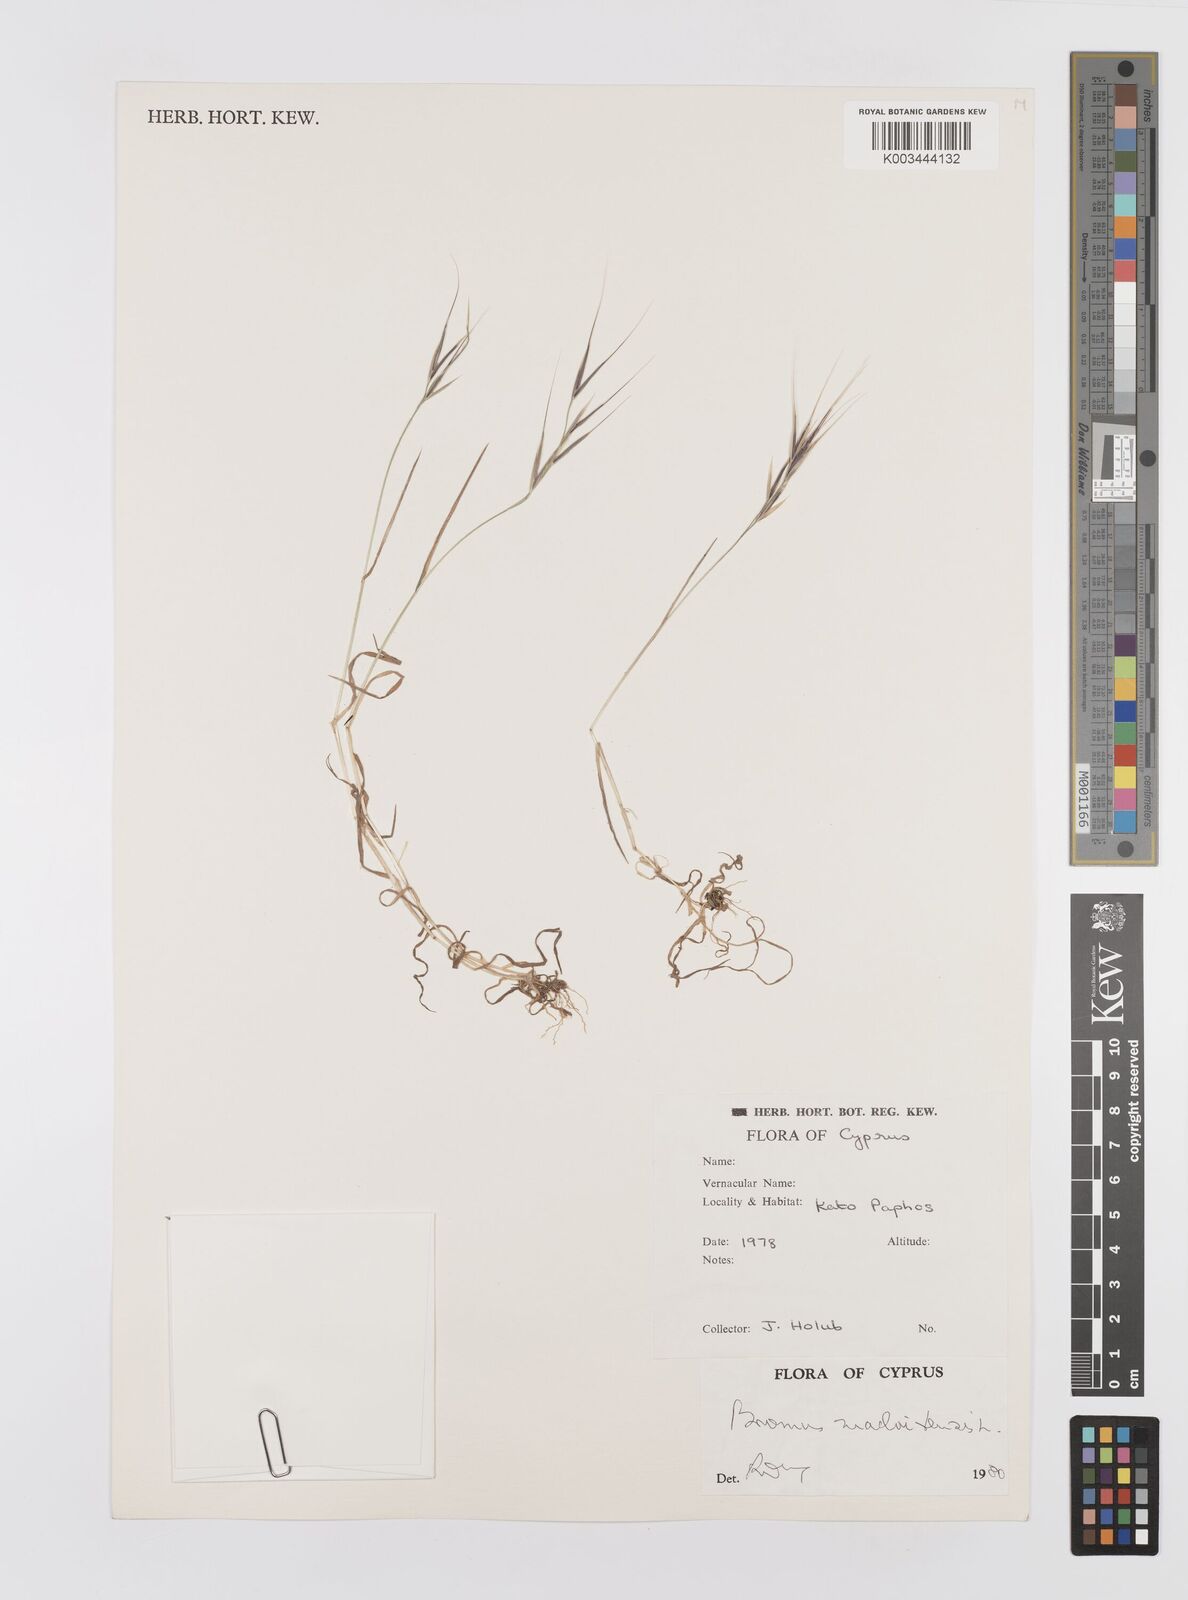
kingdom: Plantae
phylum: Tracheophyta
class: Liliopsida
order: Poales
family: Poaceae
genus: Bromus
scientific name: Bromus madritensis
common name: Compact brome
